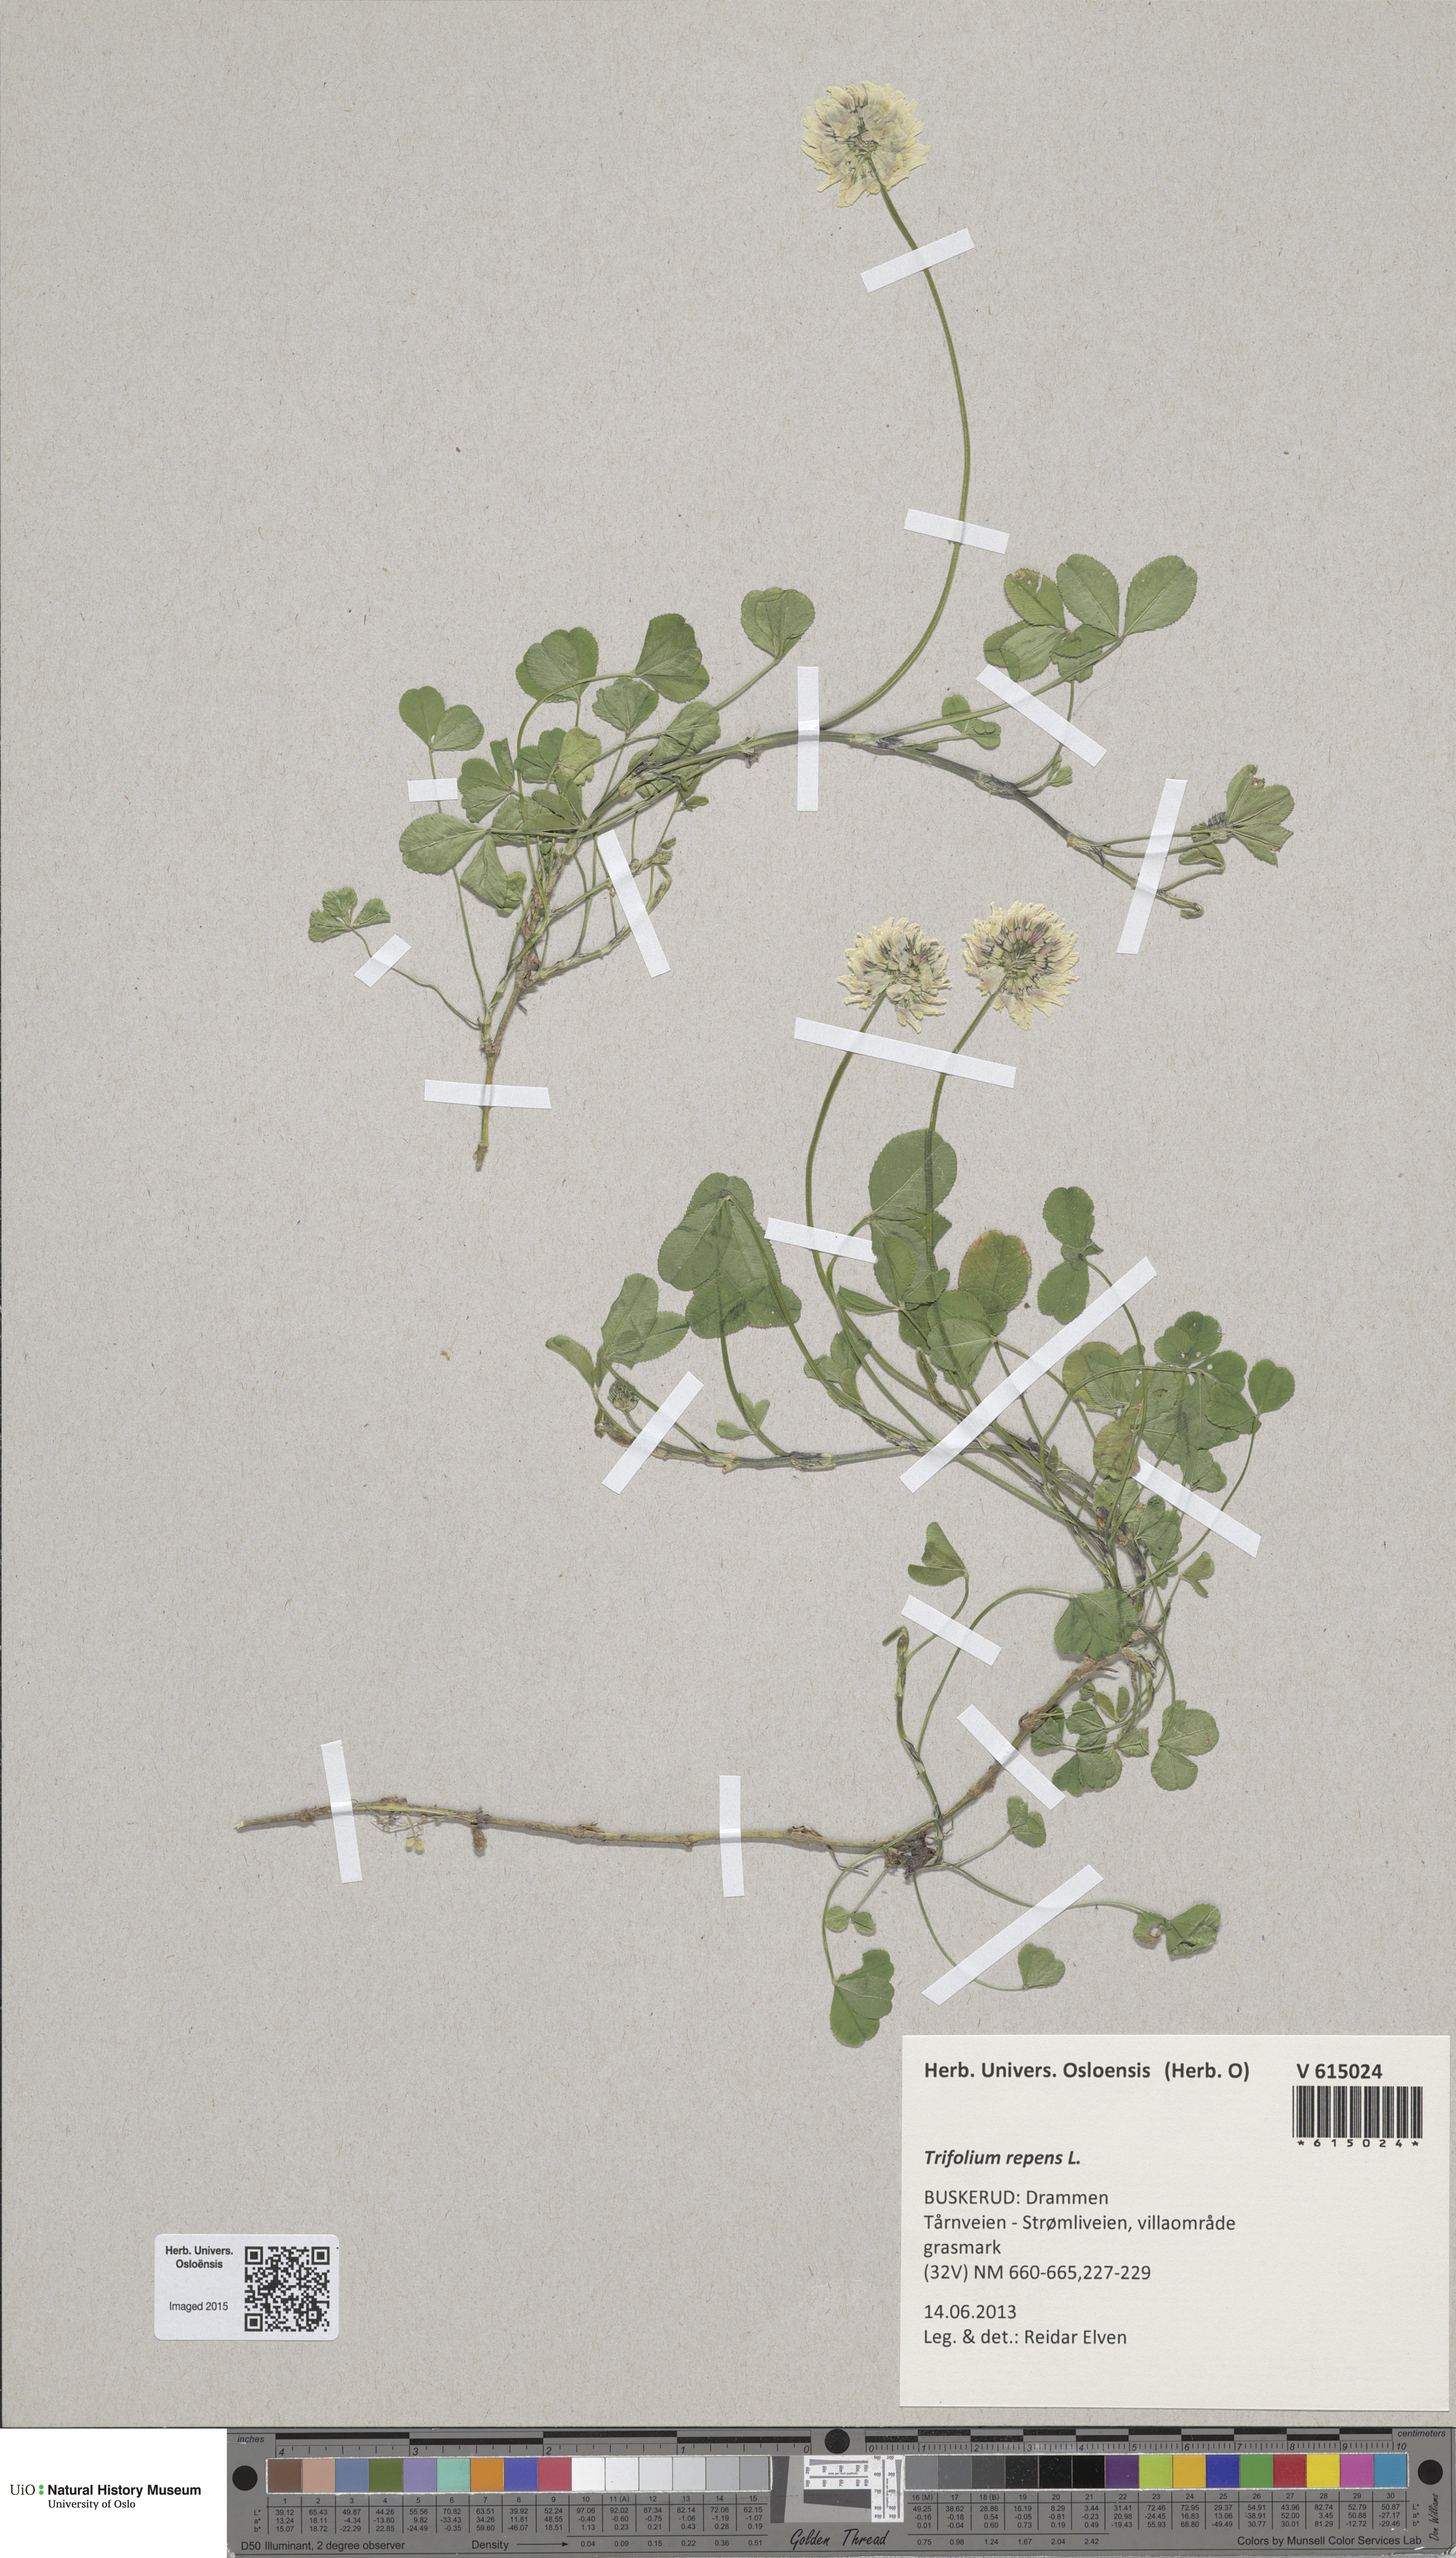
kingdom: Plantae
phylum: Tracheophyta
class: Magnoliopsida
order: Fabales
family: Fabaceae
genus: Trifolium
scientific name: Trifolium repens
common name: White clover
